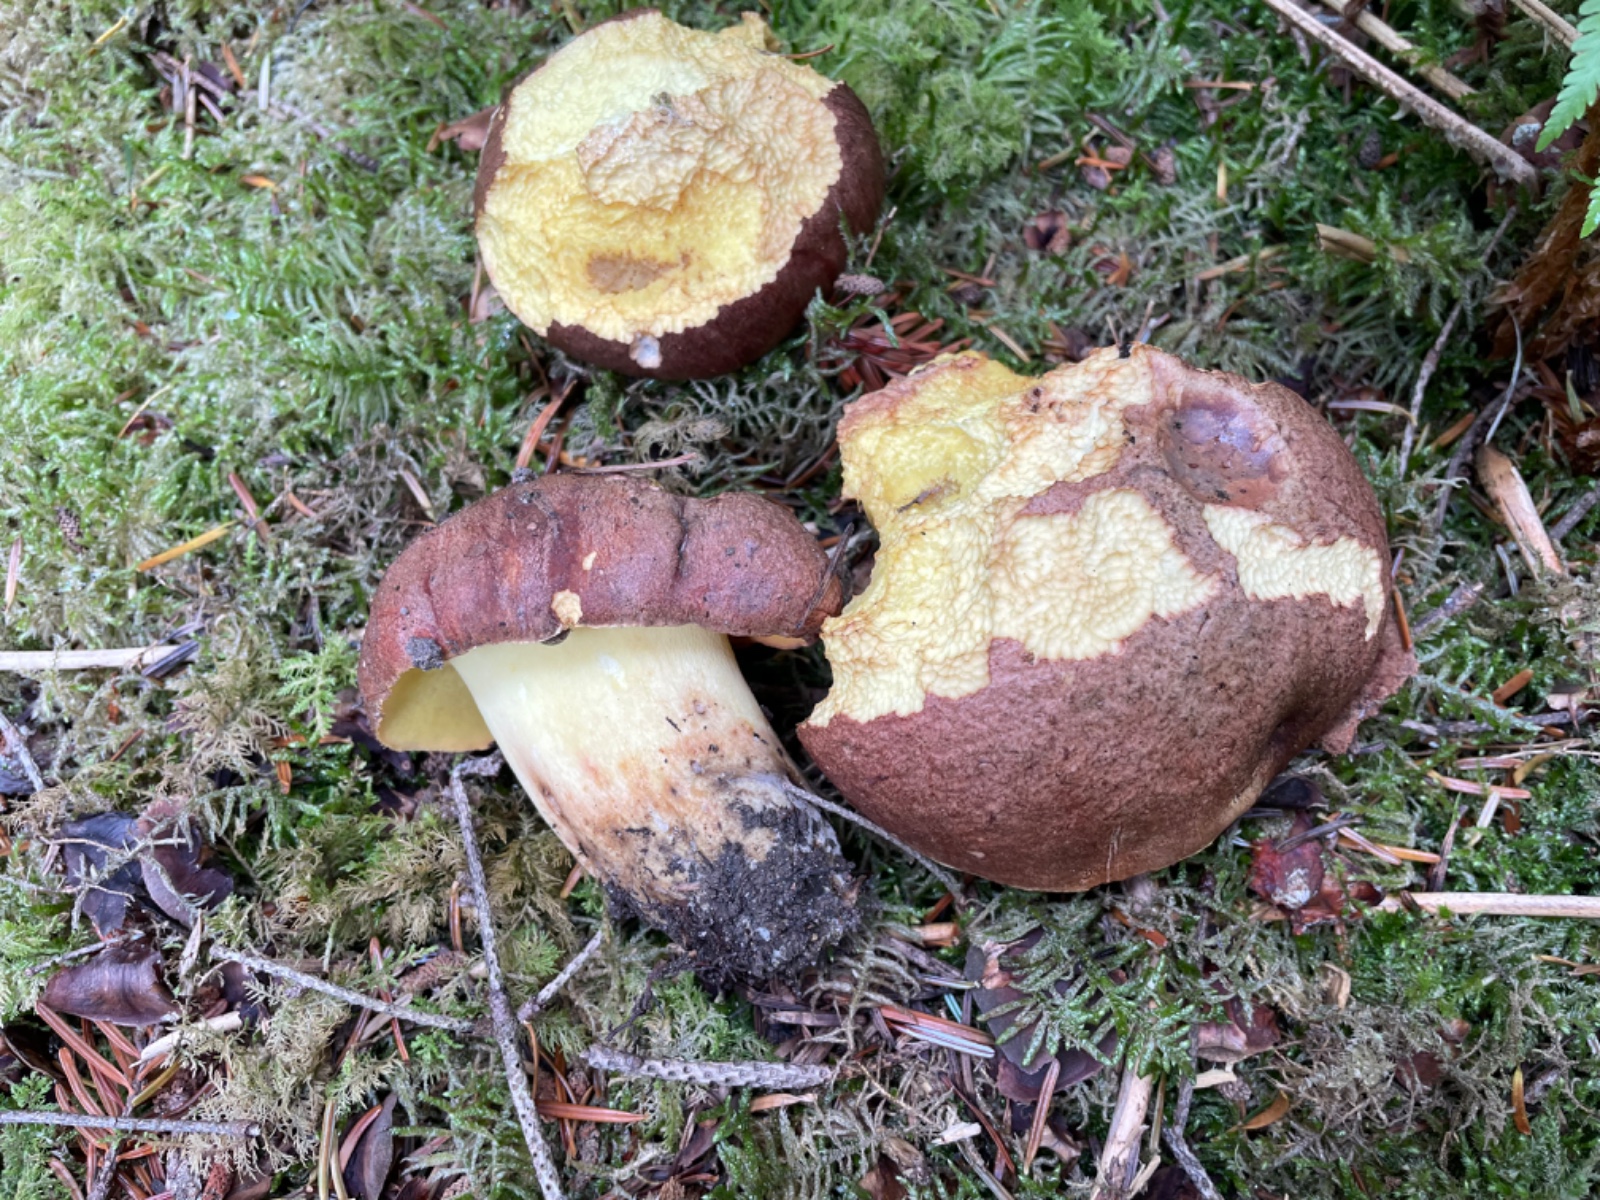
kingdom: Fungi
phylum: Basidiomycota
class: Agaricomycetes
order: Boletales
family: Boletaceae
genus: Butyriboletus
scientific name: Butyriboletus appendiculatus
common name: tenstokket rørhat
